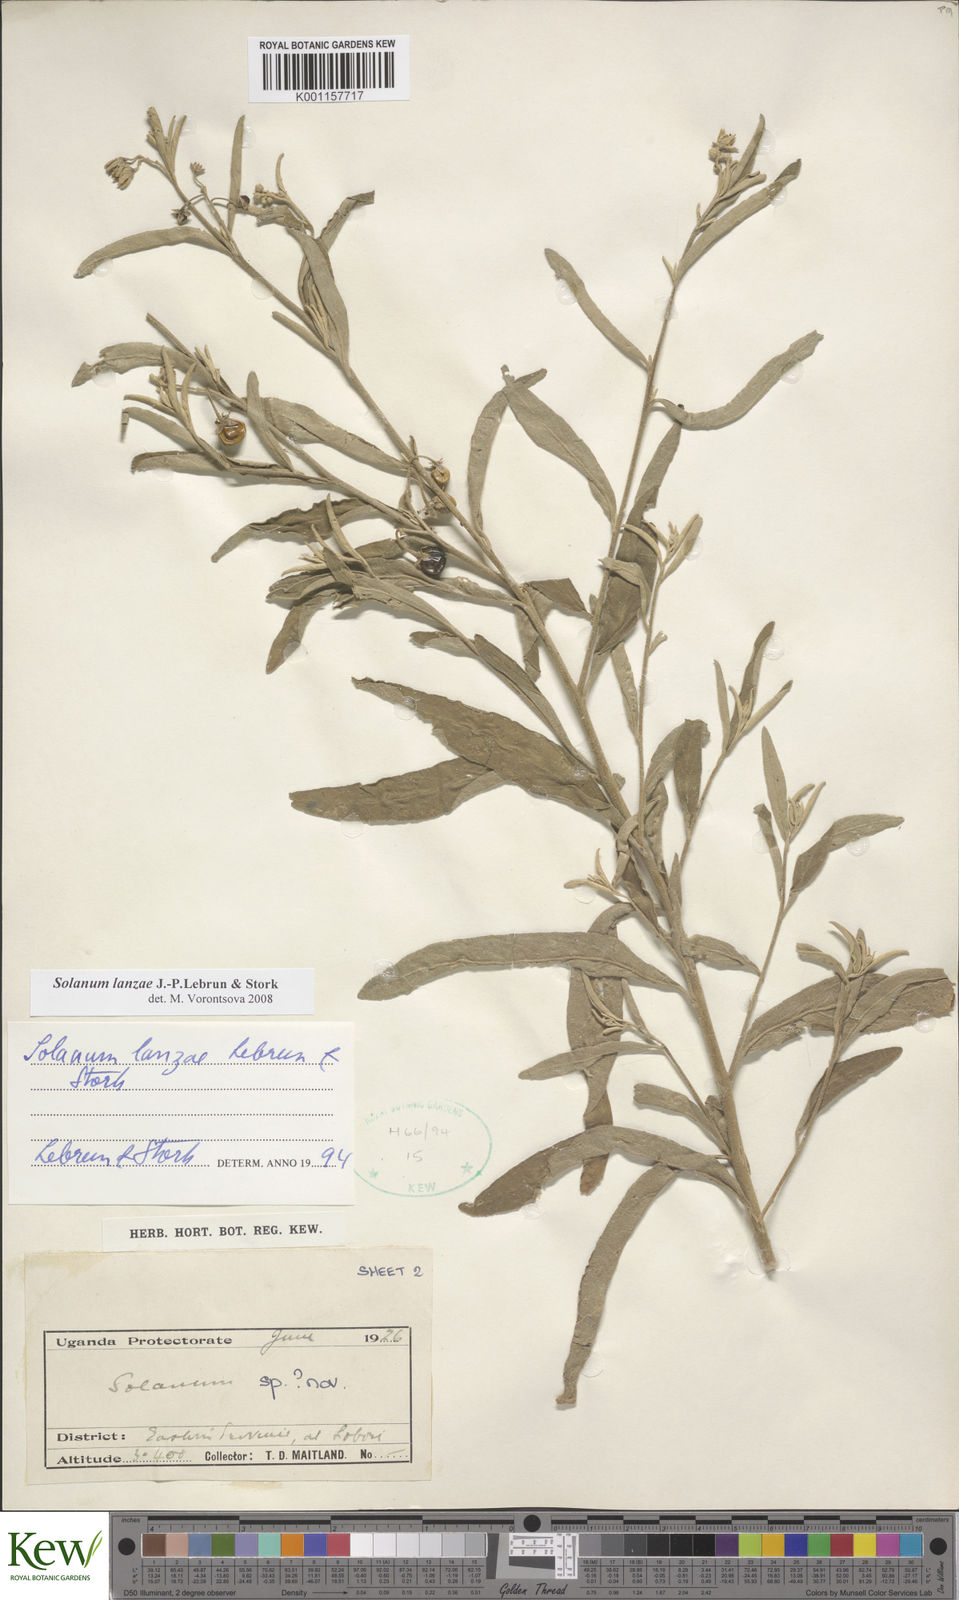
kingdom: Plantae
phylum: Tracheophyta
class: Magnoliopsida
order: Solanales
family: Solanaceae
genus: Solanum
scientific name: Solanum lanzae
